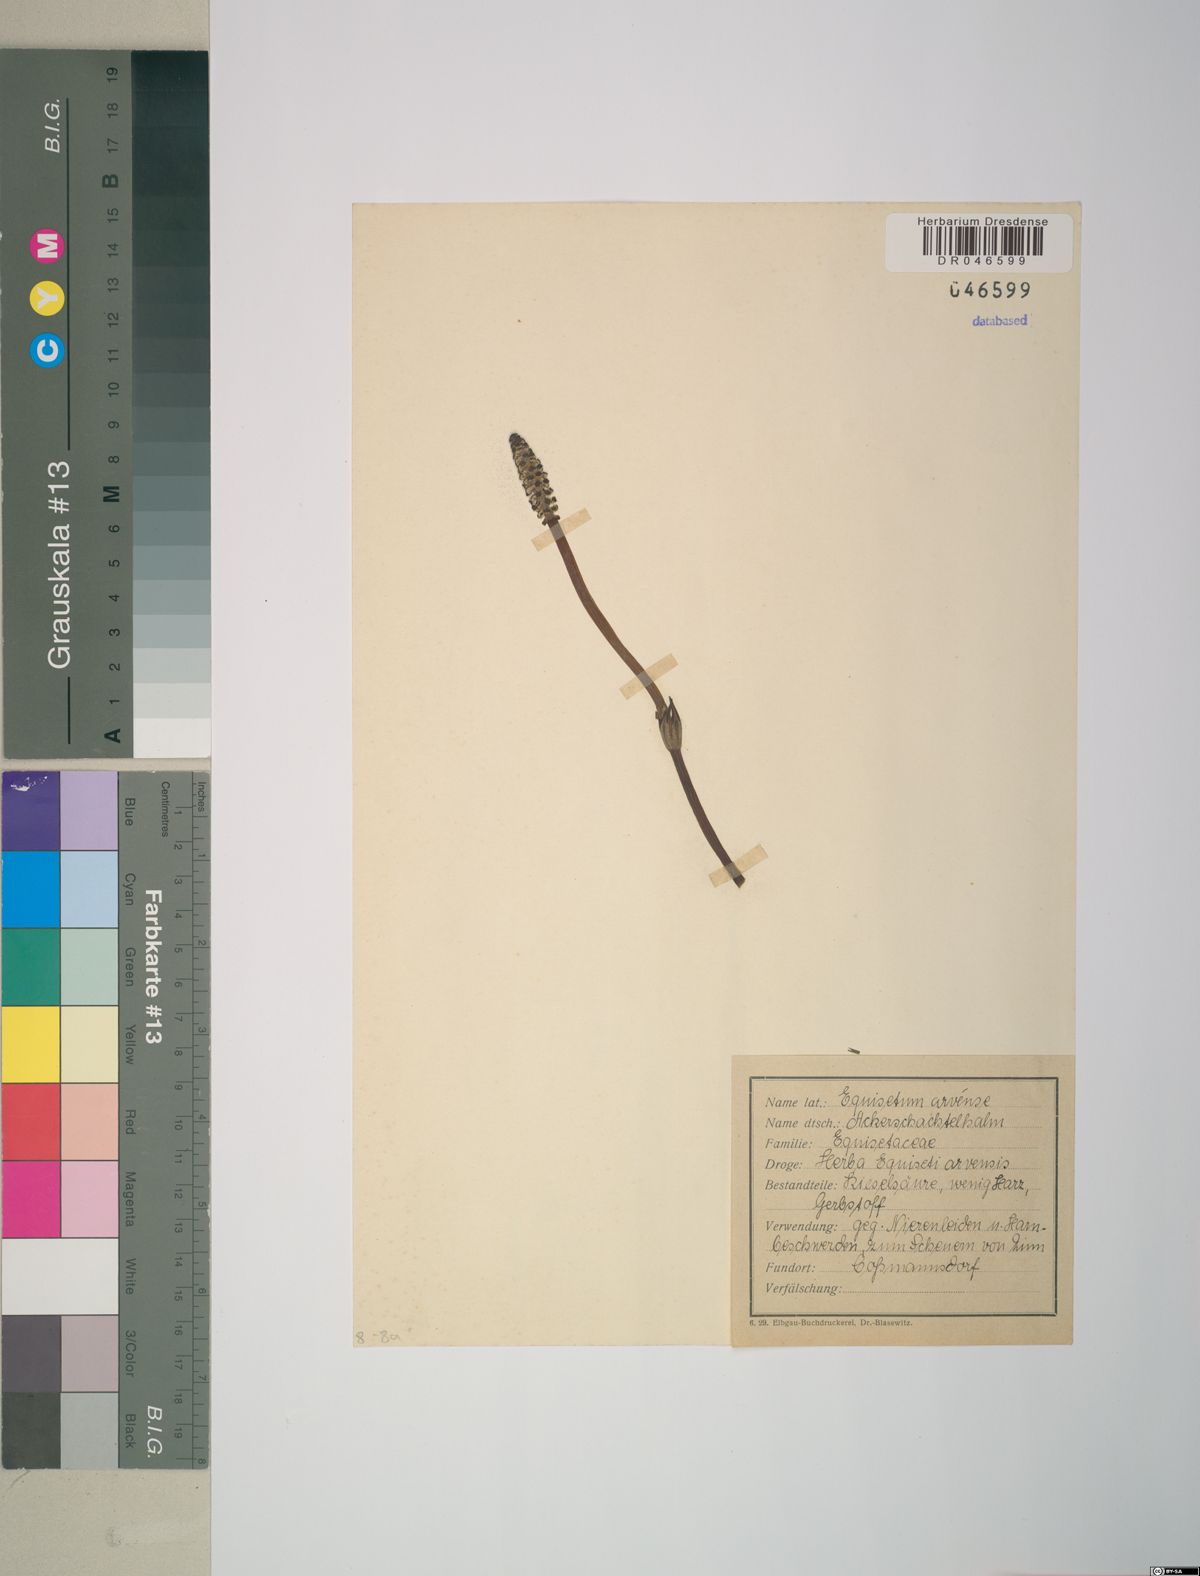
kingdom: Plantae
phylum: Tracheophyta
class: Polypodiopsida
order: Equisetales
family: Equisetaceae
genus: Equisetum
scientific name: Equisetum arvense
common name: Field horsetail
